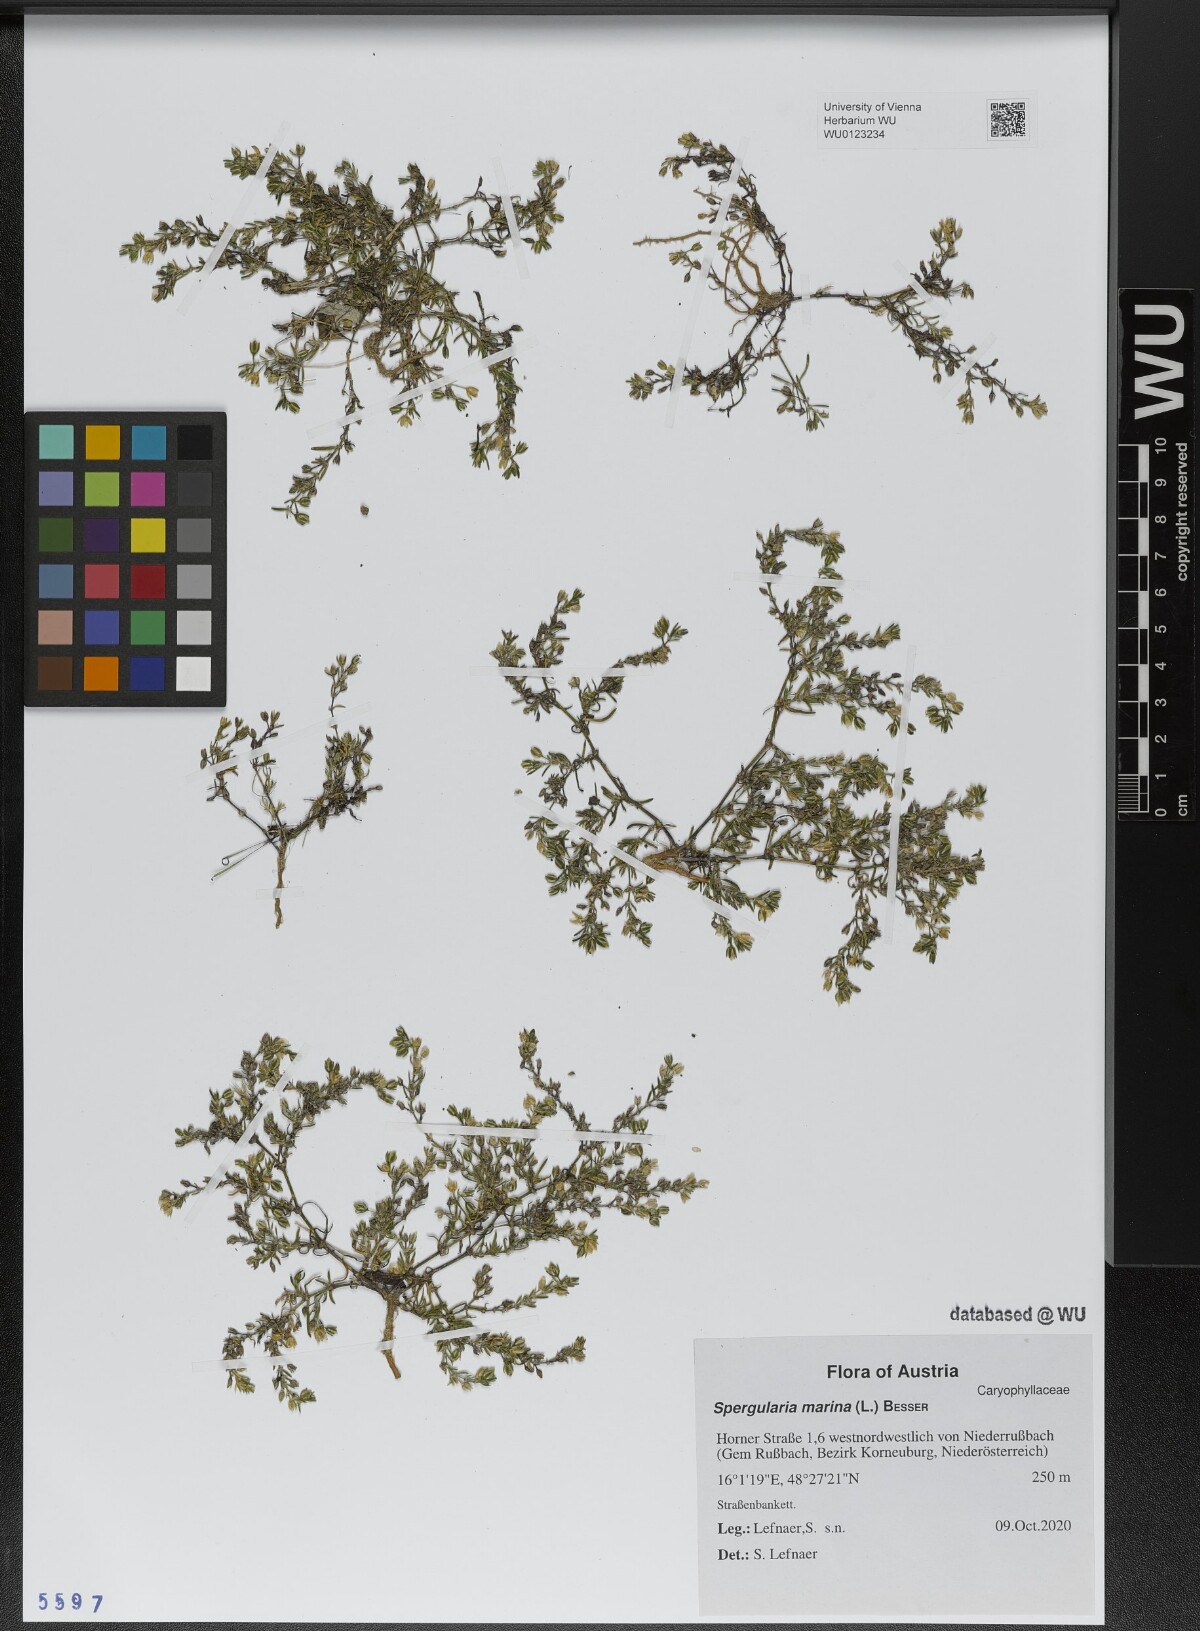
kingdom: Plantae
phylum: Tracheophyta
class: Magnoliopsida
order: Caryophyllales
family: Caryophyllaceae
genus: Spergularia
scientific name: Spergularia marina
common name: Lesser sea-spurrey
